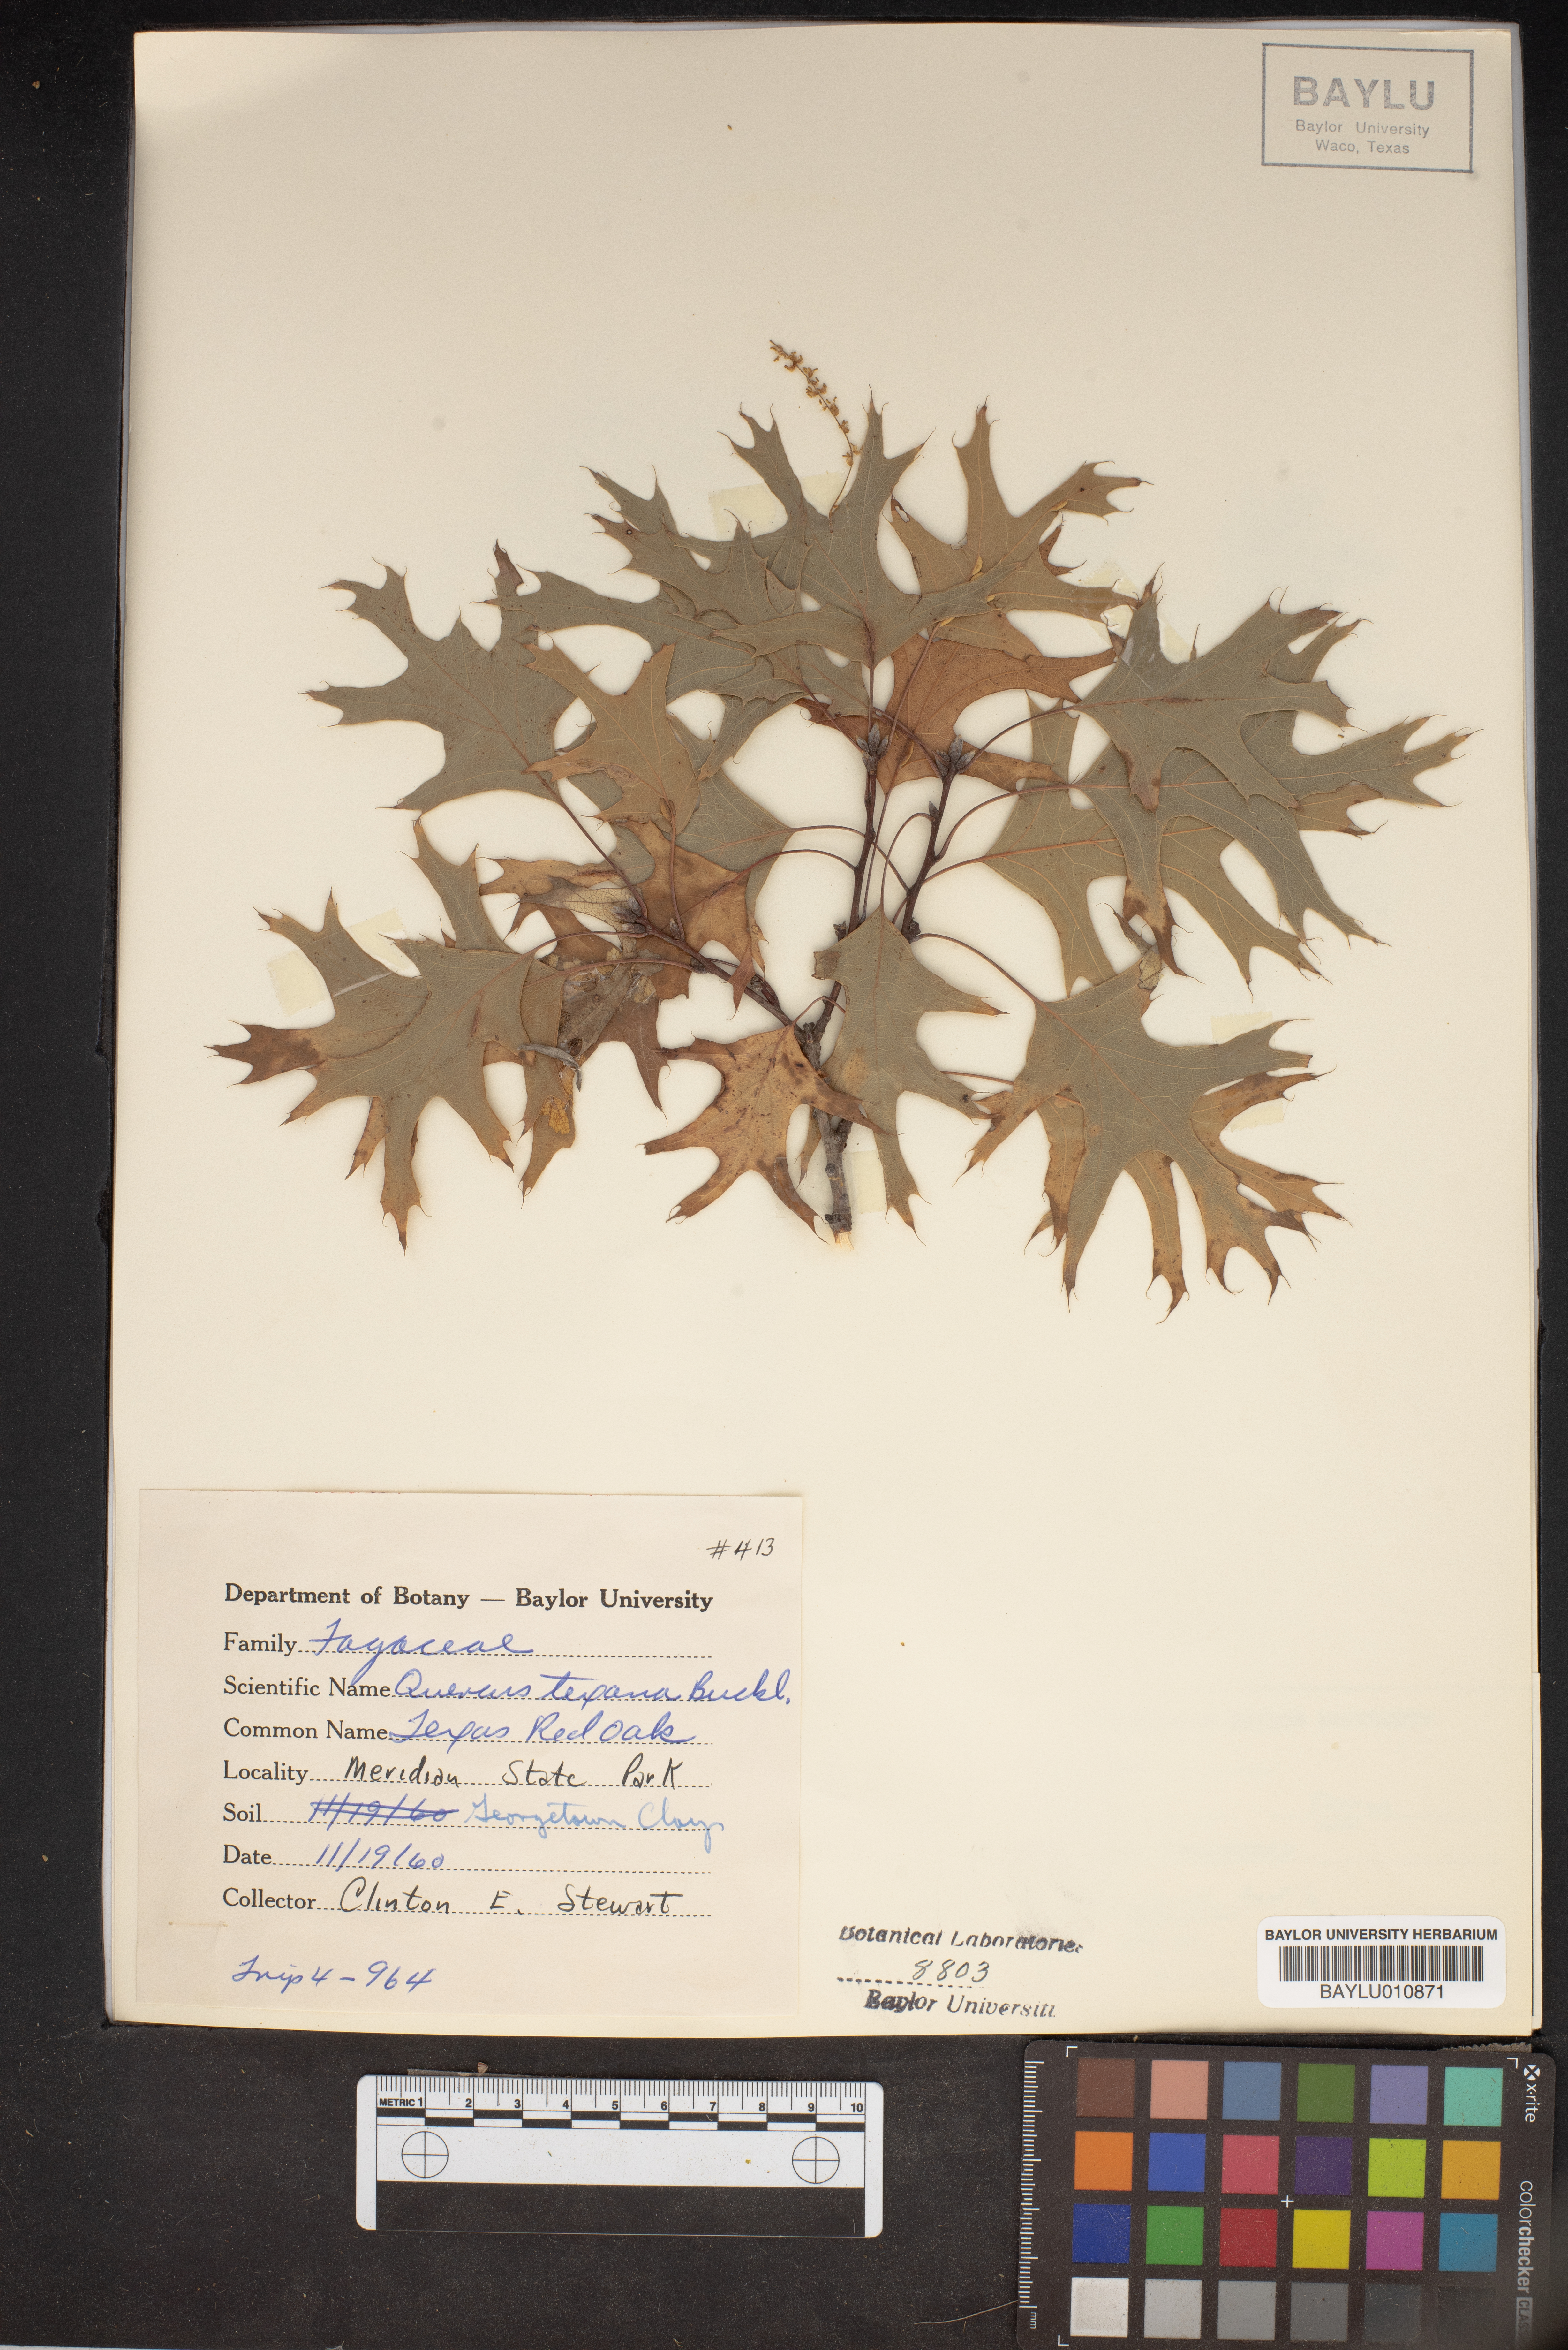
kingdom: Plantae
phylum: Tracheophyta
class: Magnoliopsida
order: Fagales
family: Fagaceae
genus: Quercus
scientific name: Quercus texana
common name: Nuttall oak
